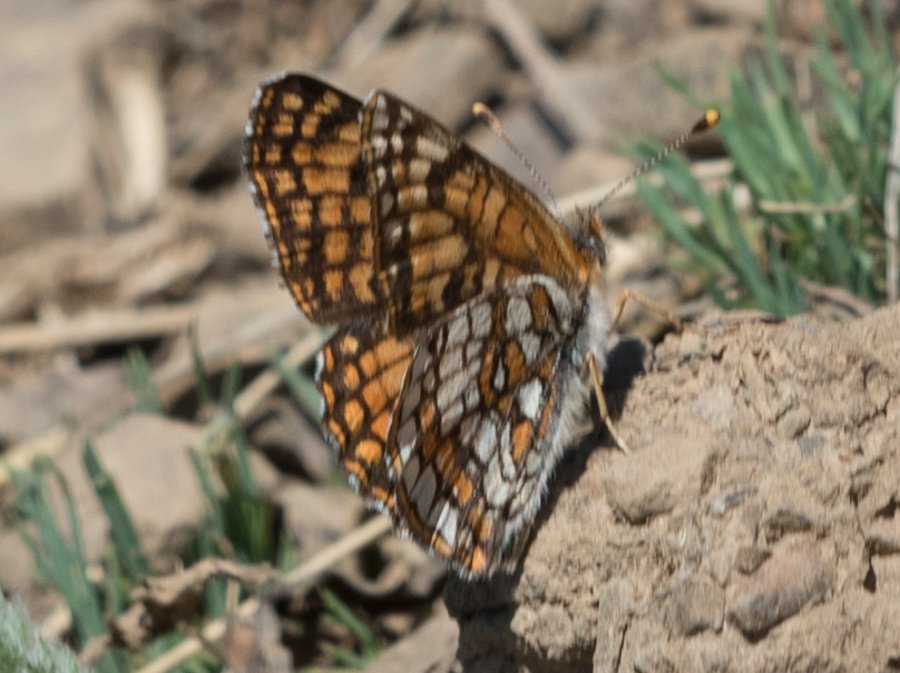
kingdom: Animalia
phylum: Arthropoda
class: Insecta
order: Lepidoptera
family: Nymphalidae
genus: Chlosyne
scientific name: Chlosyne damoetas
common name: Rockslide Checkerspot
